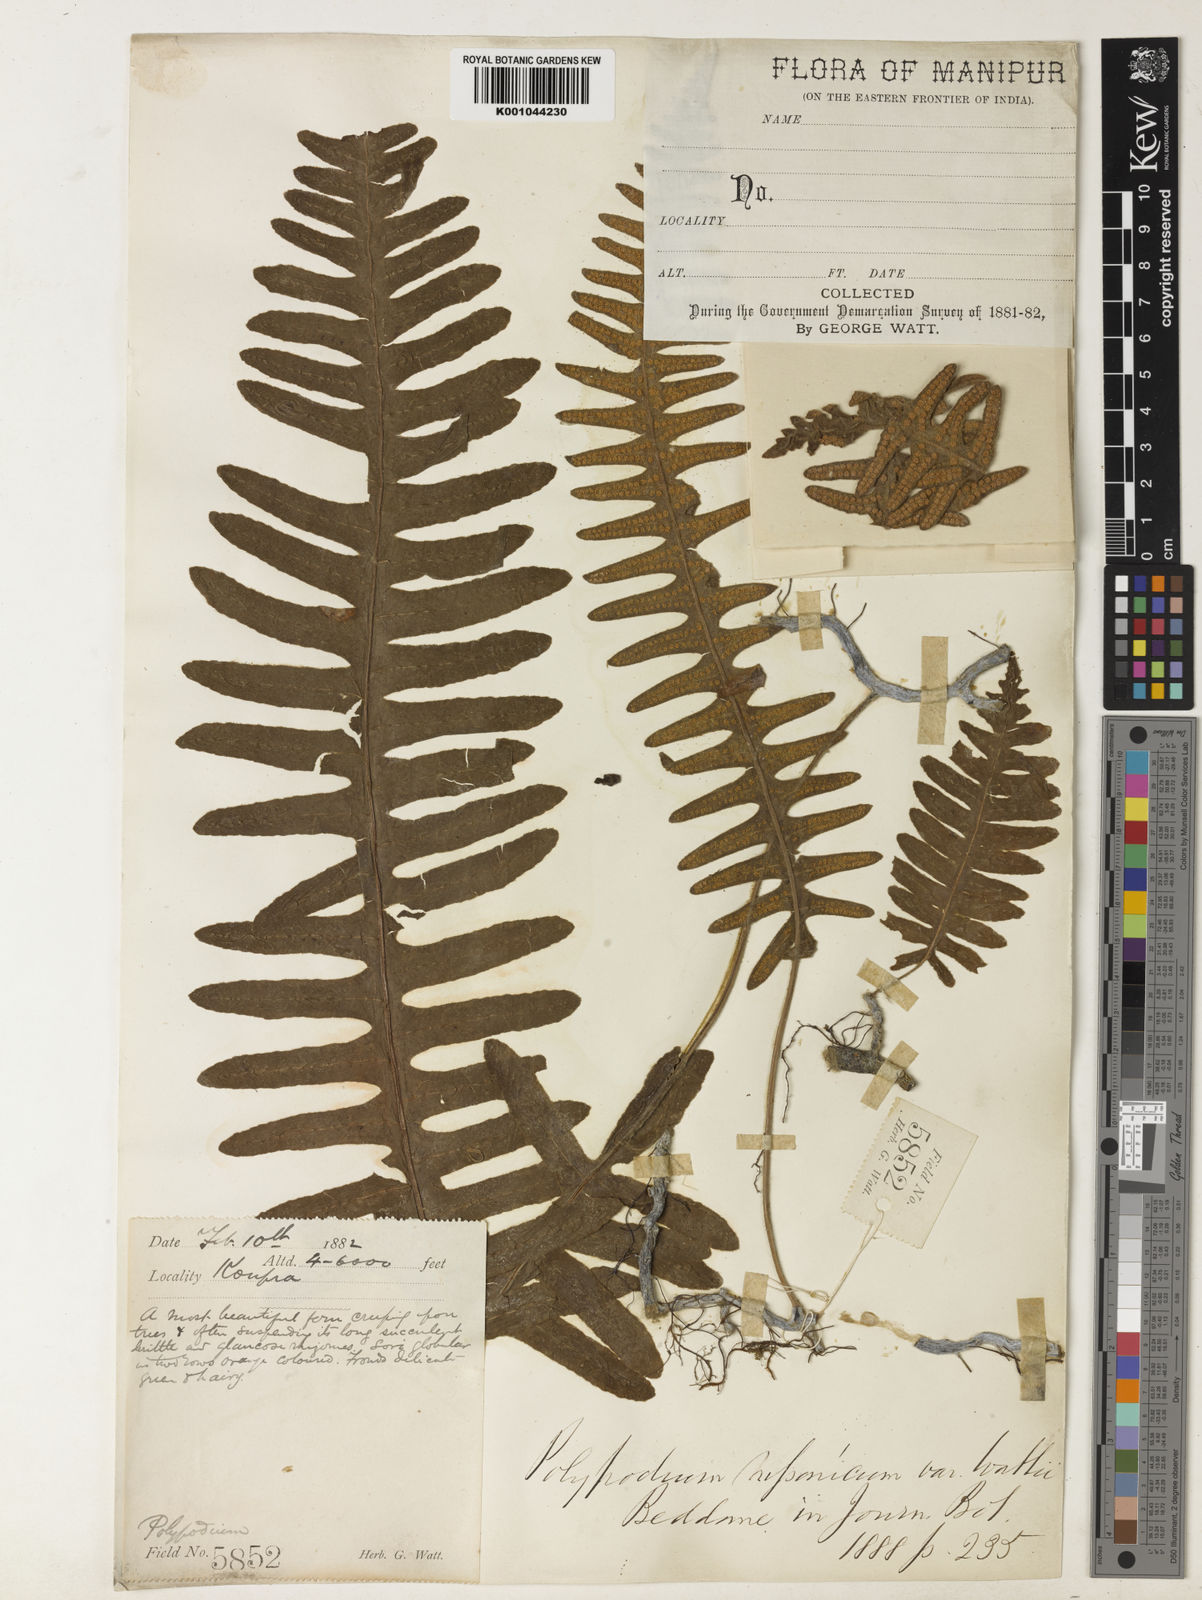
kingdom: Plantae
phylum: Tracheophyta
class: Polypodiopsida
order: Polypodiales
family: Polypodiaceae
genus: Goniophlebium
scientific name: Goniophlebium wattii
